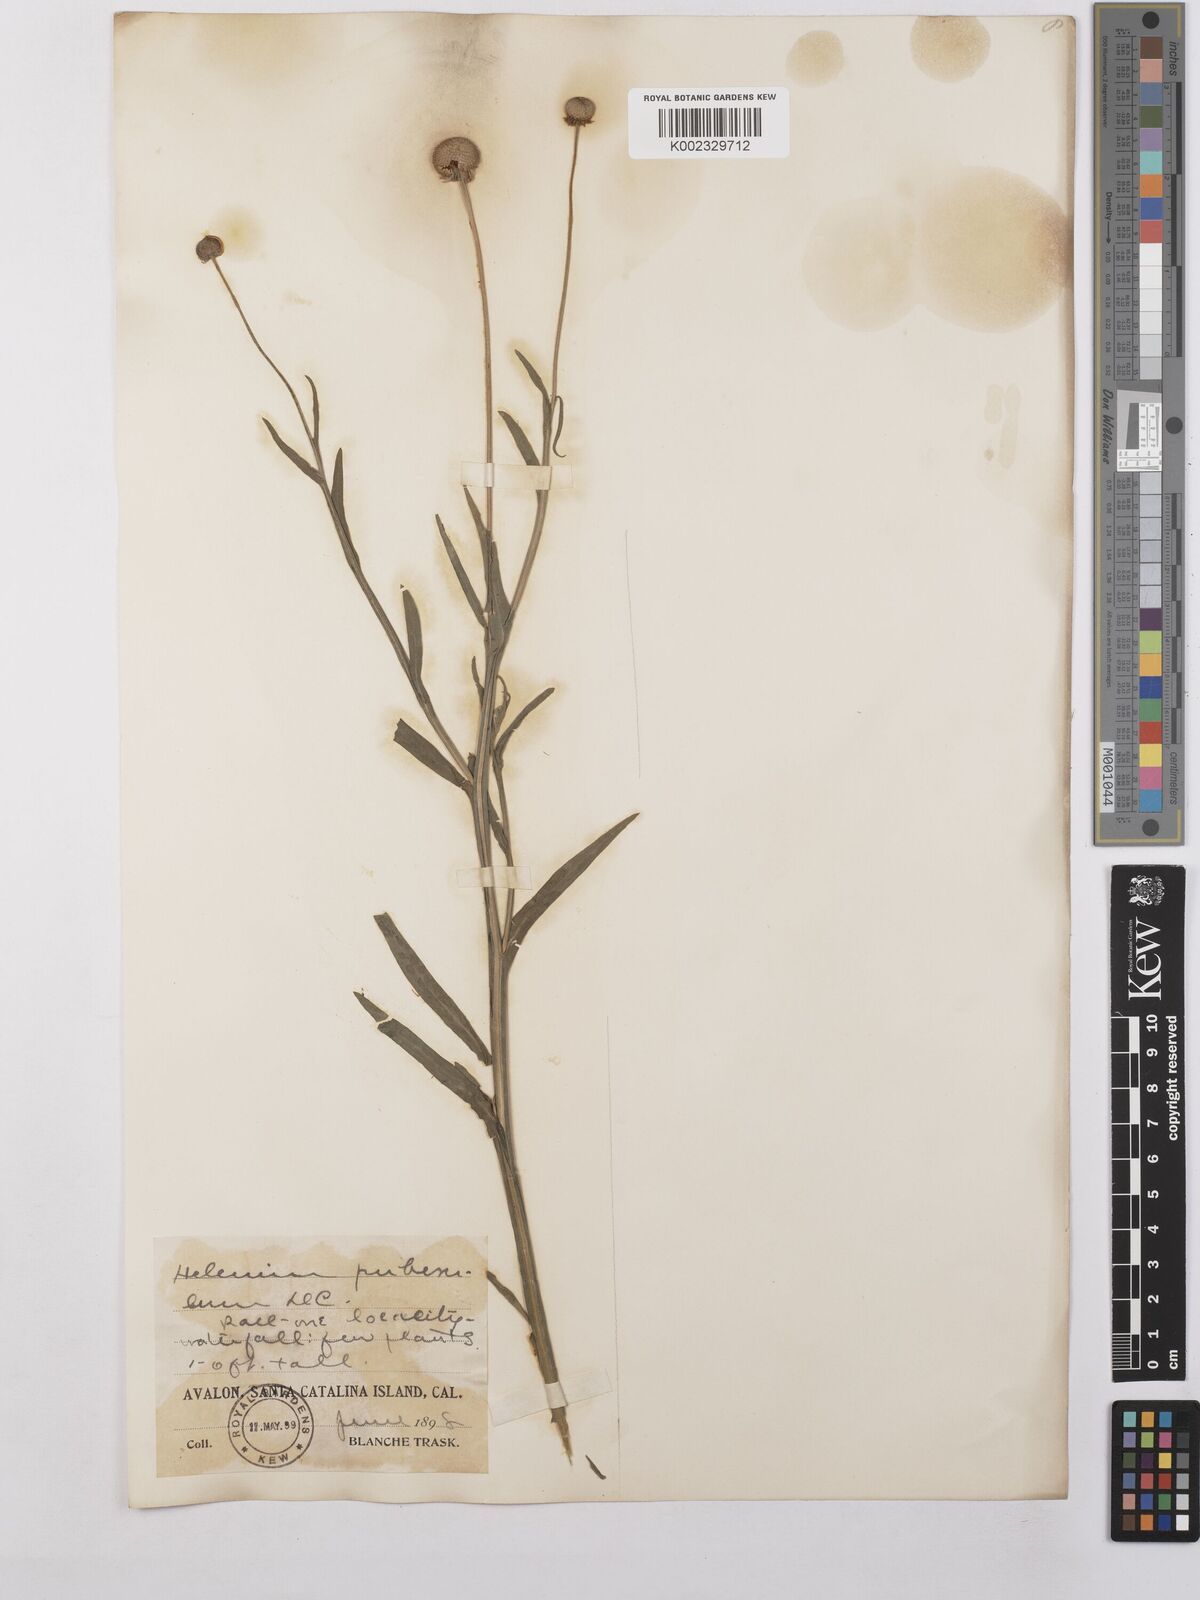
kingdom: Plantae
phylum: Tracheophyta
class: Magnoliopsida
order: Asterales
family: Asteraceae
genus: Helenium
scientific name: Helenium puberulum
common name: Sneezewort
